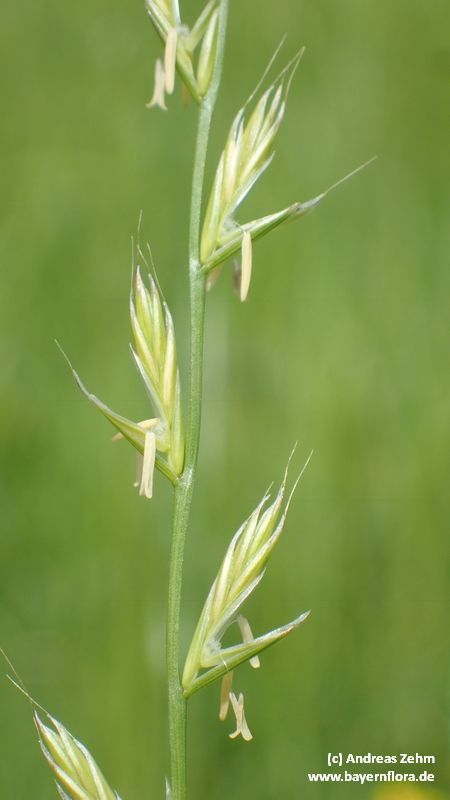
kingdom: Plantae
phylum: Tracheophyta
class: Liliopsida
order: Poales
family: Poaceae
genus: Lolium
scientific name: Lolium multiflorum
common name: Annual ryegrass
